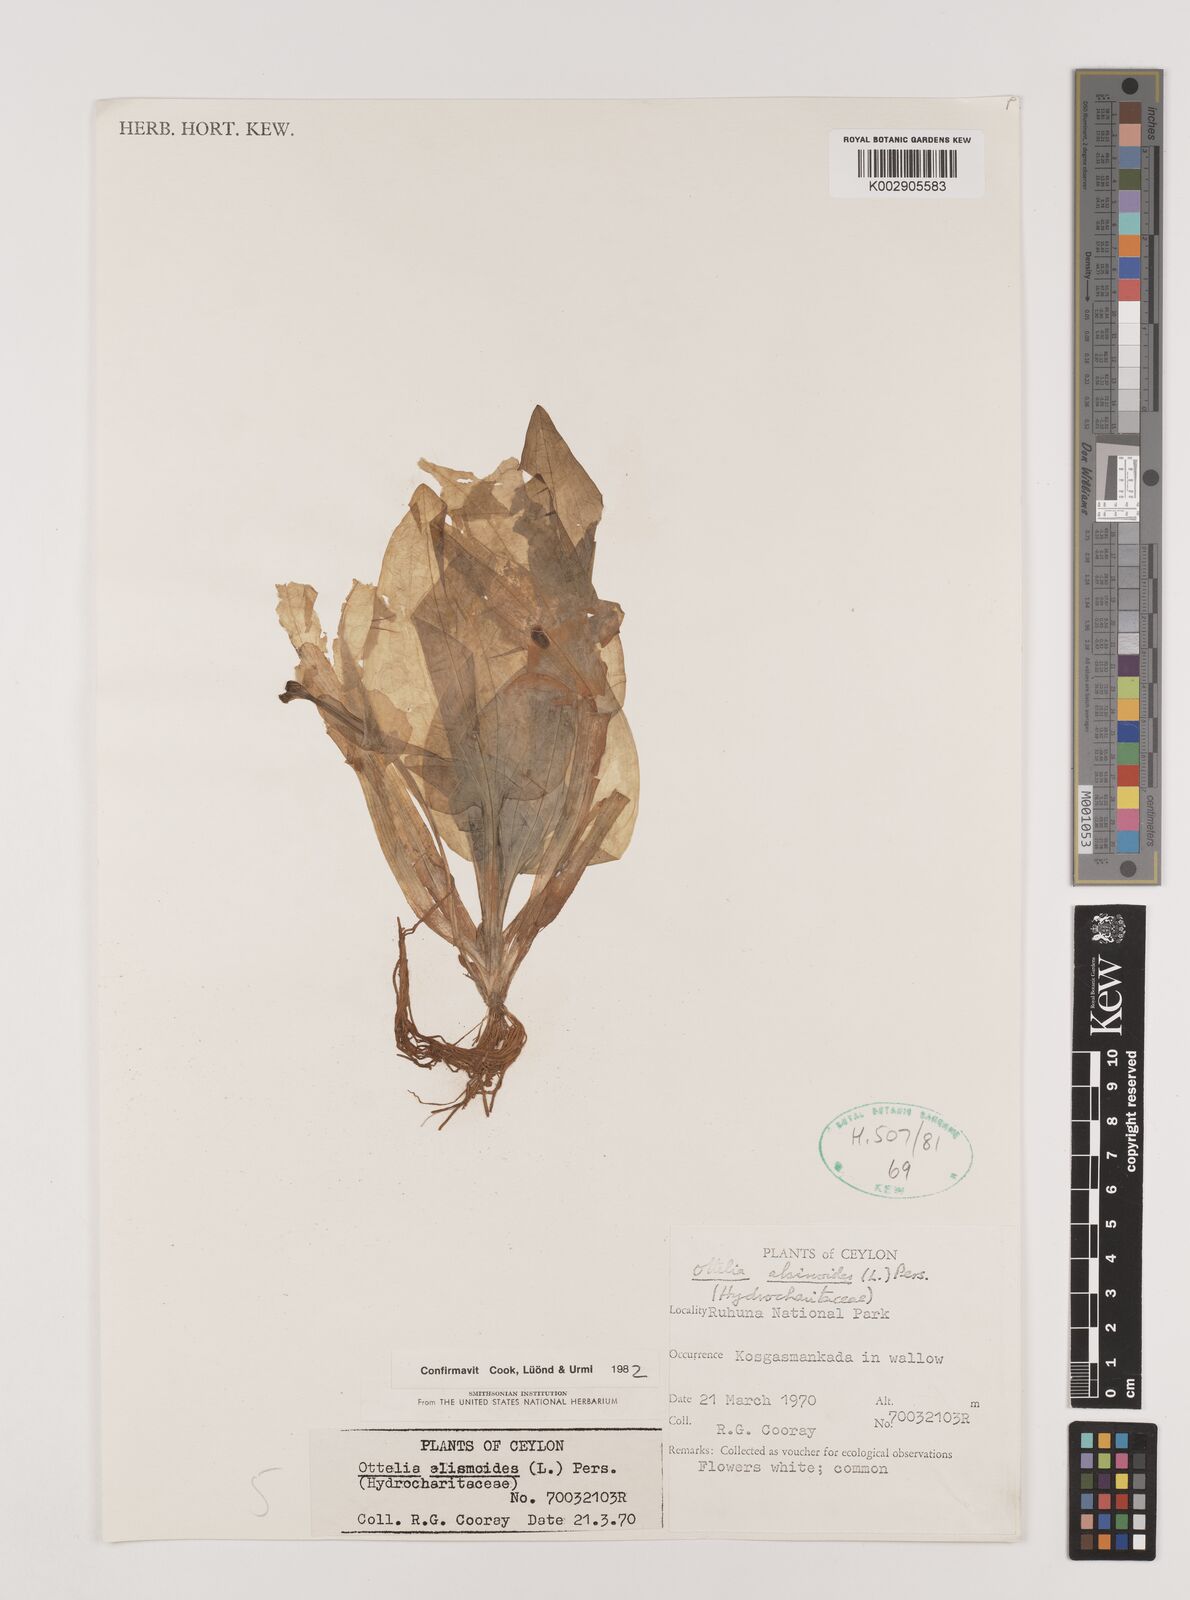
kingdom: Plantae
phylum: Tracheophyta
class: Liliopsida
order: Alismatales
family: Hydrocharitaceae
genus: Ottelia
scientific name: Ottelia alismoides
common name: Duck-lettuce
